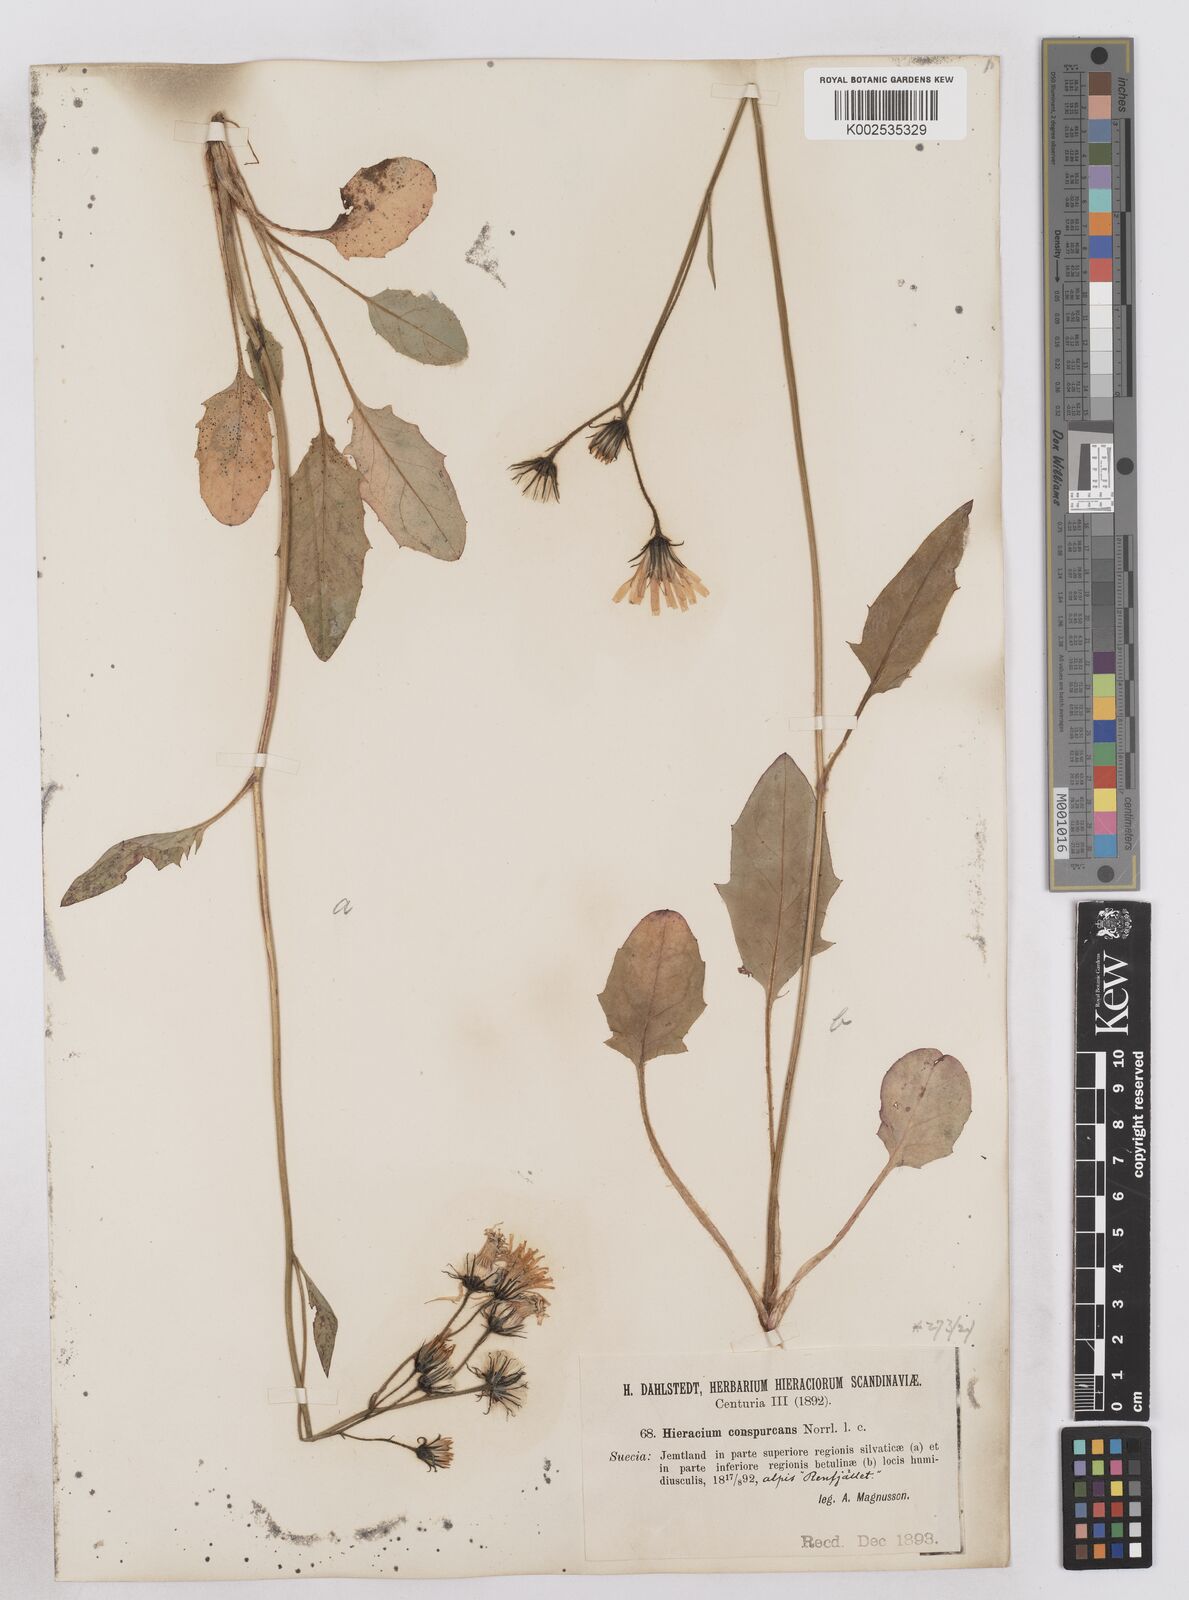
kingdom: Plantae
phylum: Tracheophyta
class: Magnoliopsida
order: Asterales
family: Asteraceae
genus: Hieracium
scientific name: Hieracium conspurcans
